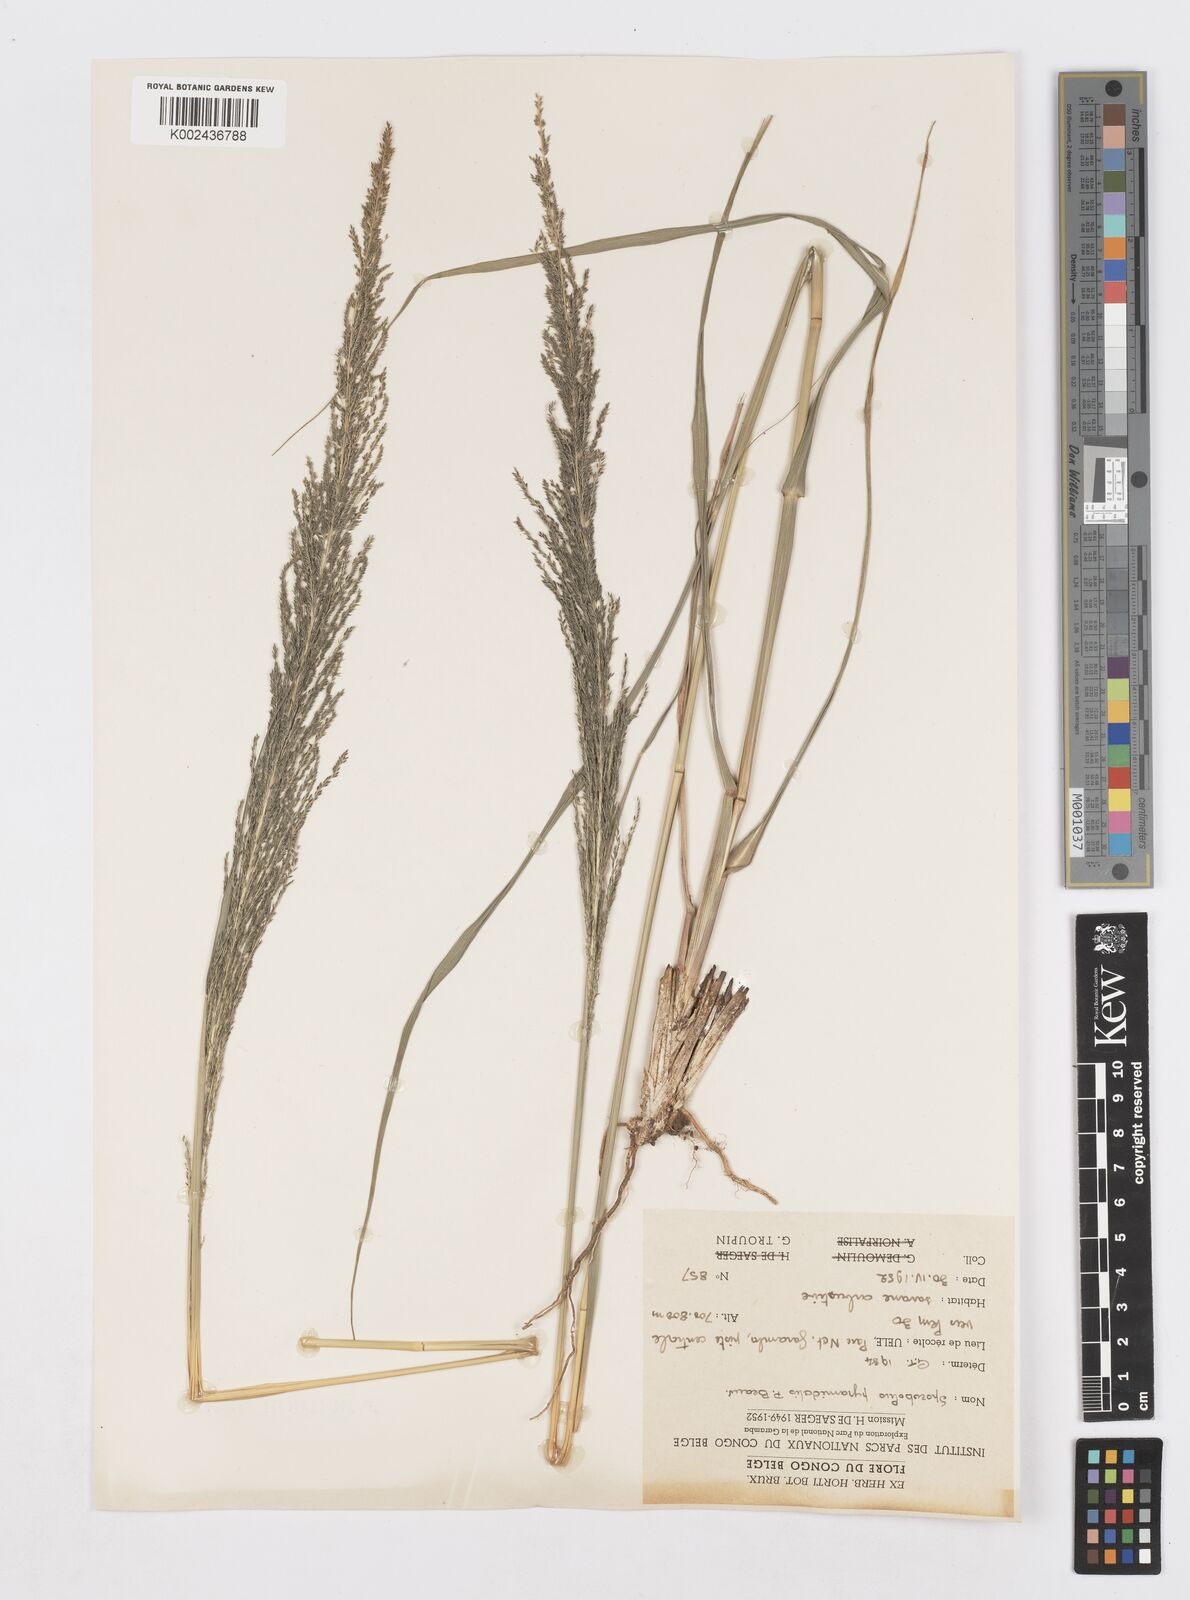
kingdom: Plantae
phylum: Tracheophyta
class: Liliopsida
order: Poales
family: Poaceae
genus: Sporobolus
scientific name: Sporobolus pyramidalis
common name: West indian dropseed
